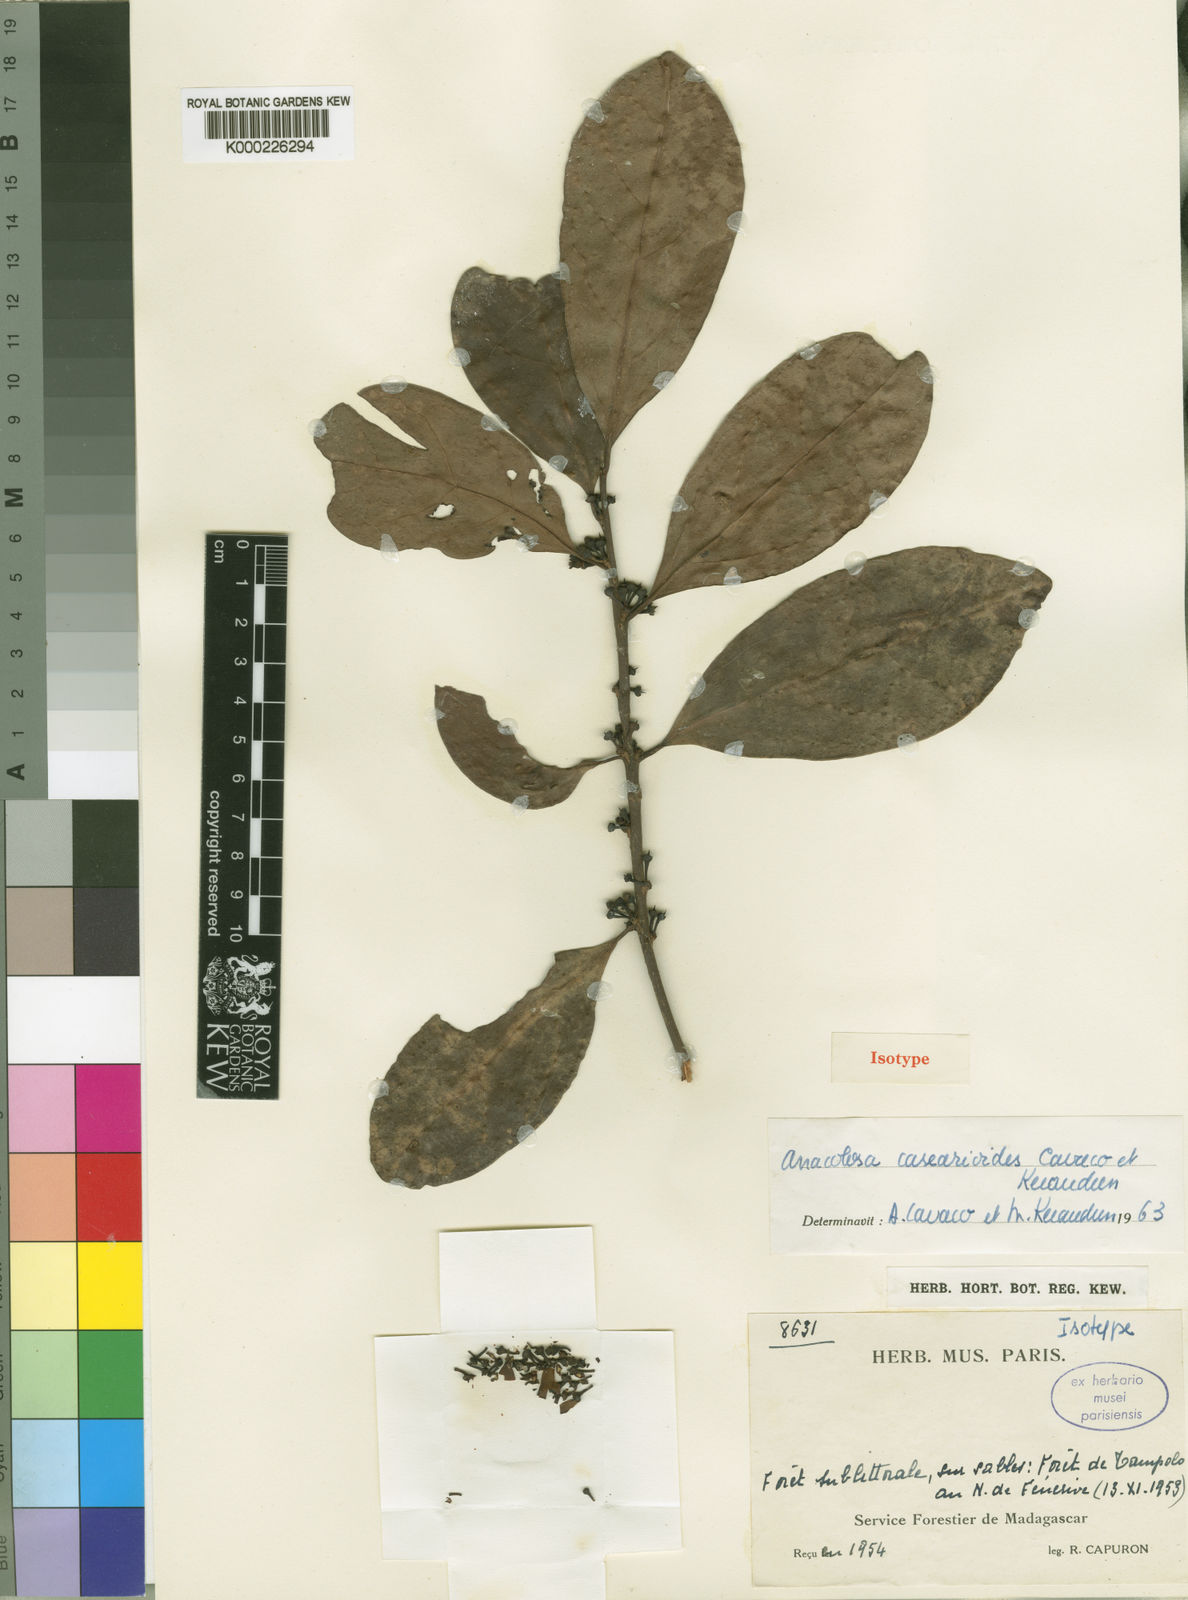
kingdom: Plantae
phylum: Tracheophyta
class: Magnoliopsida
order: Santalales
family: Aptandraceae
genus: Anacolosa
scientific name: Anacolosa casearioides
